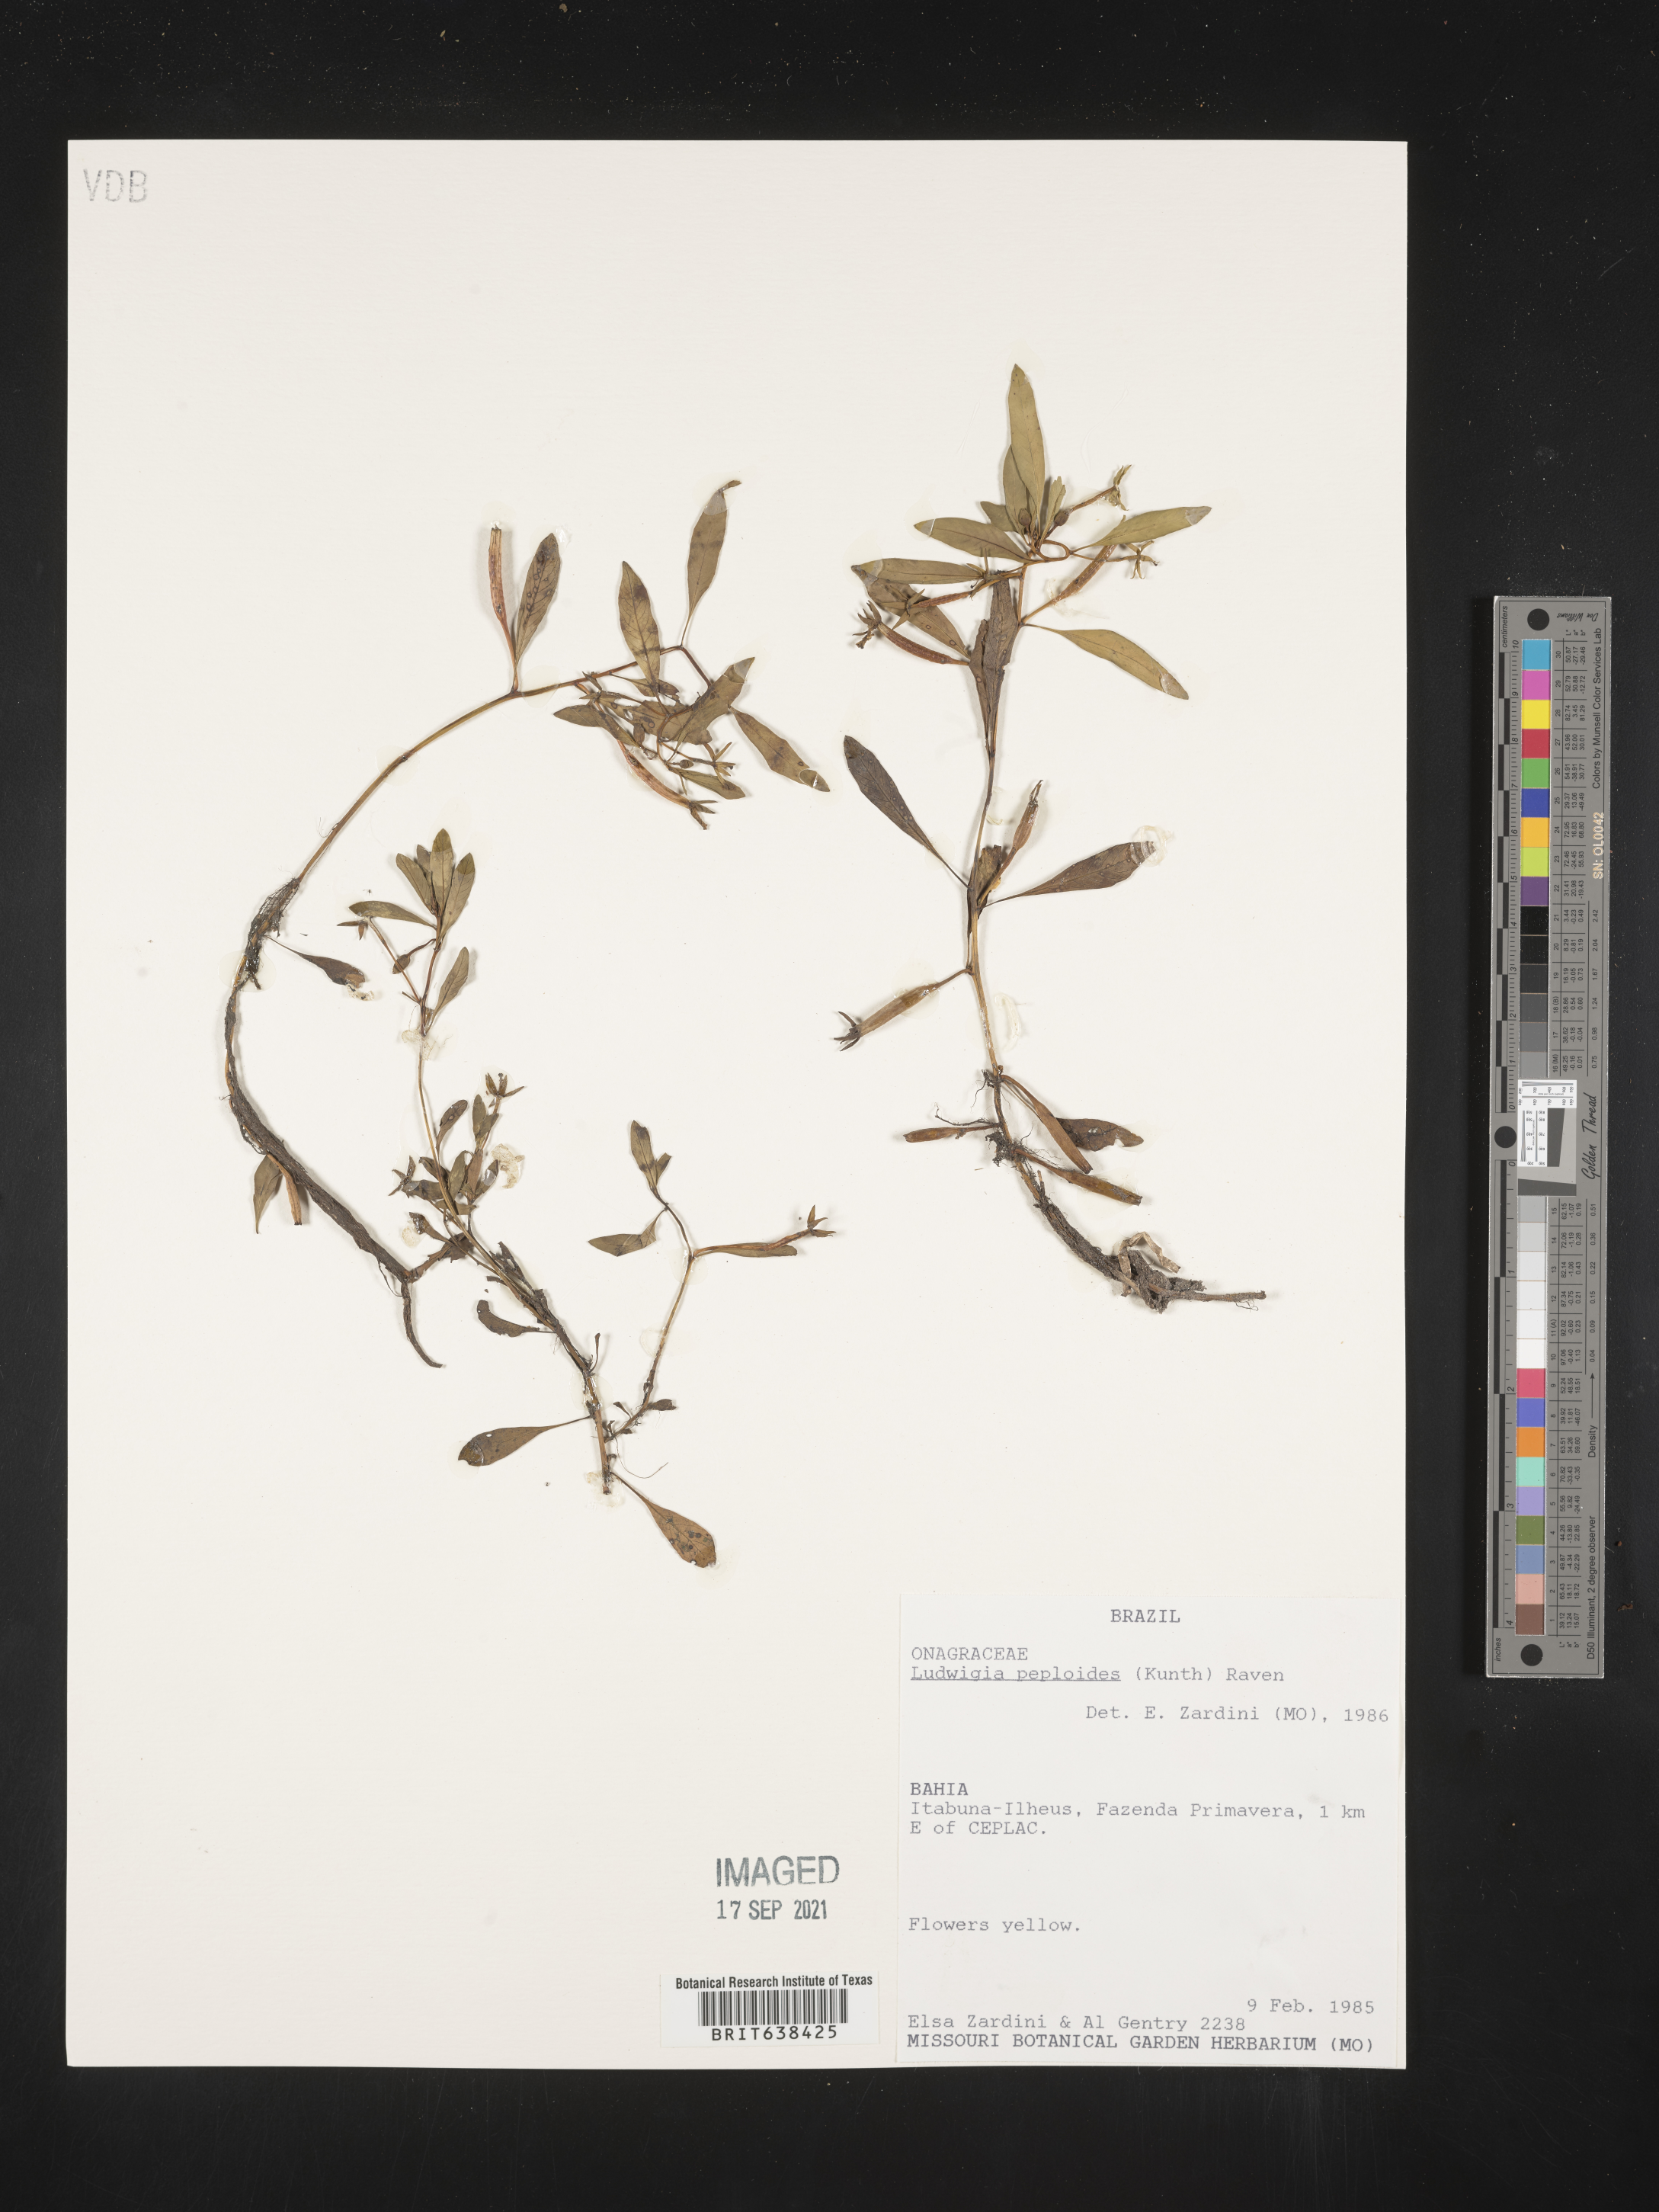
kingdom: Plantae
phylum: Tracheophyta
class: Magnoliopsida
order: Myrtales
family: Onagraceae
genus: Ludwigia
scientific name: Ludwigia
